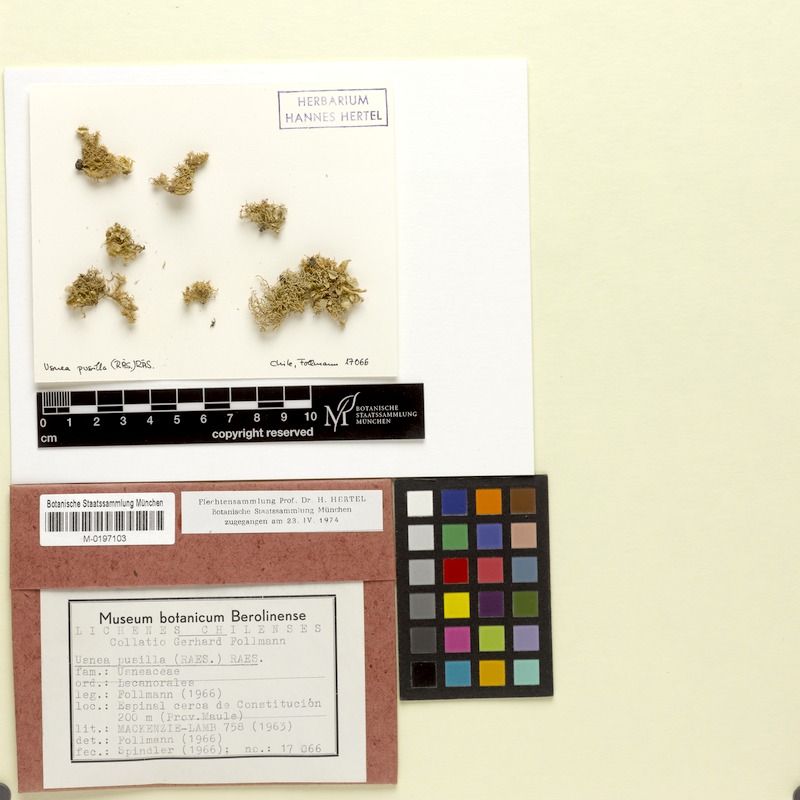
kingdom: Fungi
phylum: Ascomycota
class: Lecanoromycetes
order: Lecanorales
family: Parmeliaceae
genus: Usnea
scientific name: Usnea
